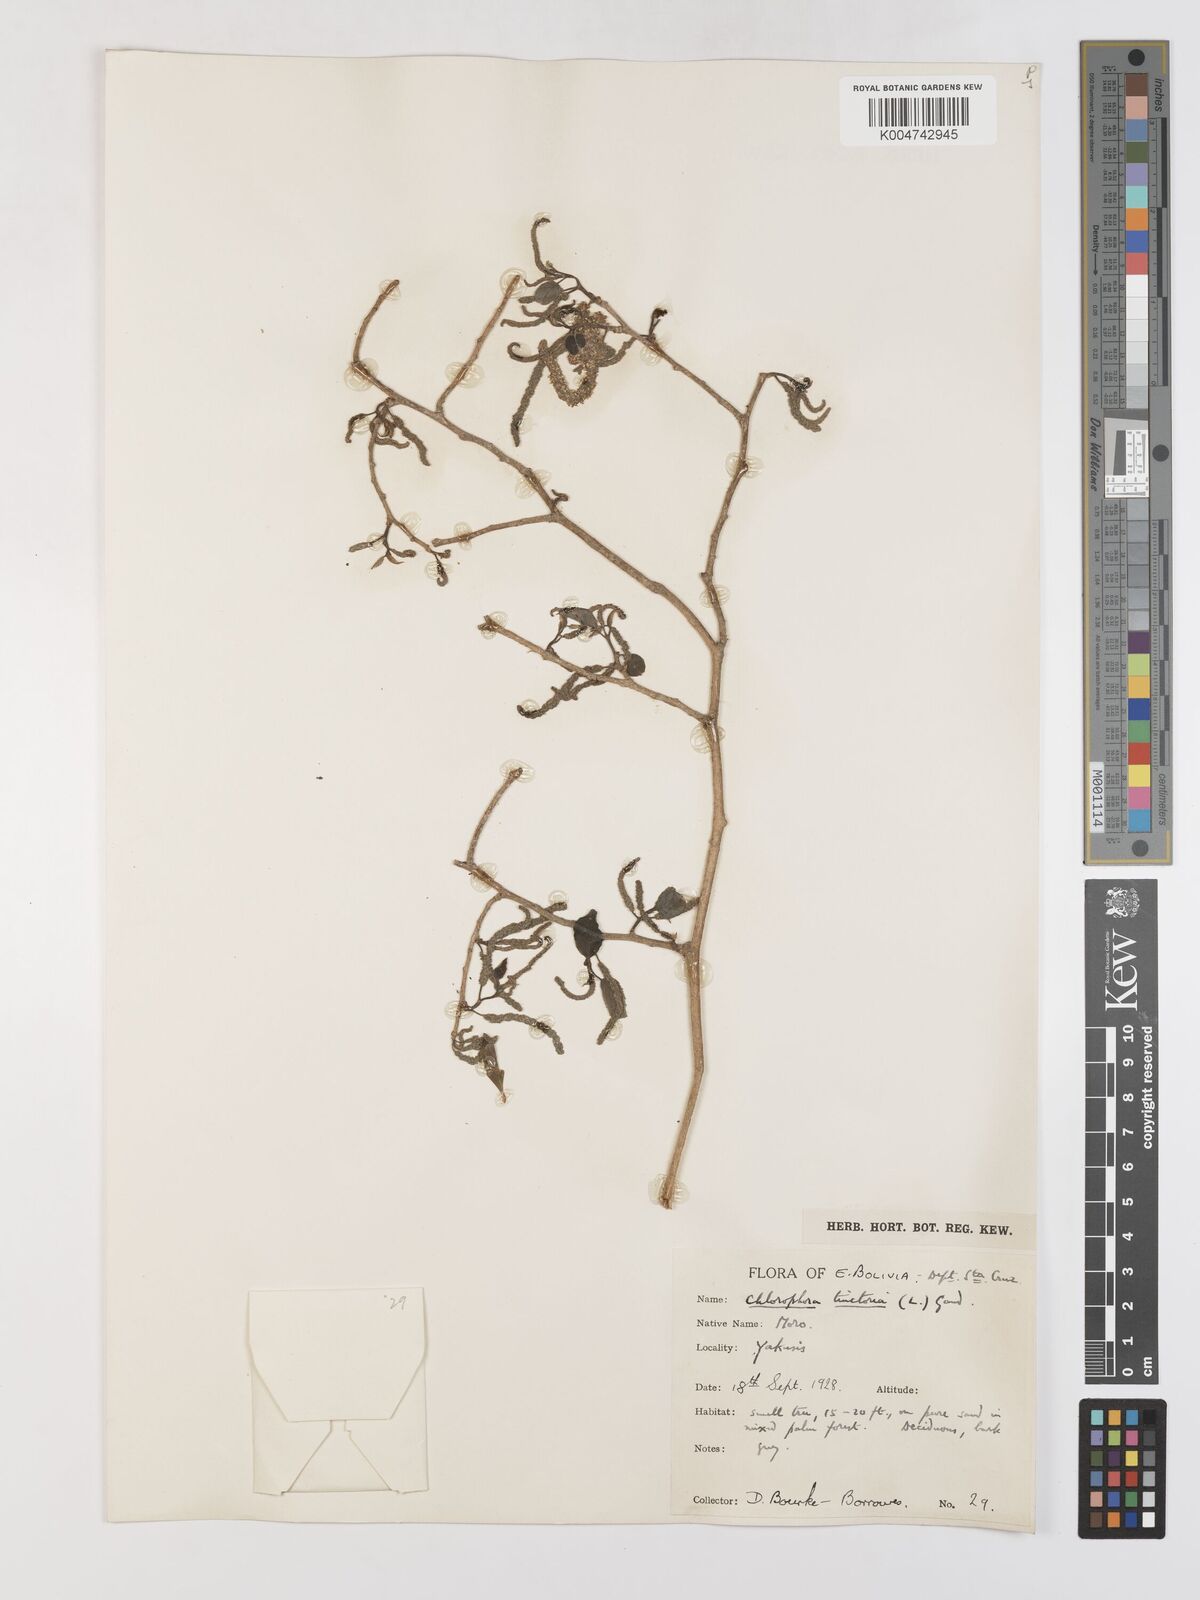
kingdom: Plantae
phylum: Tracheophyta
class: Magnoliopsida
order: Rosales
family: Moraceae
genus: Maclura
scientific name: Maclura tinctoria
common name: Old fustic
